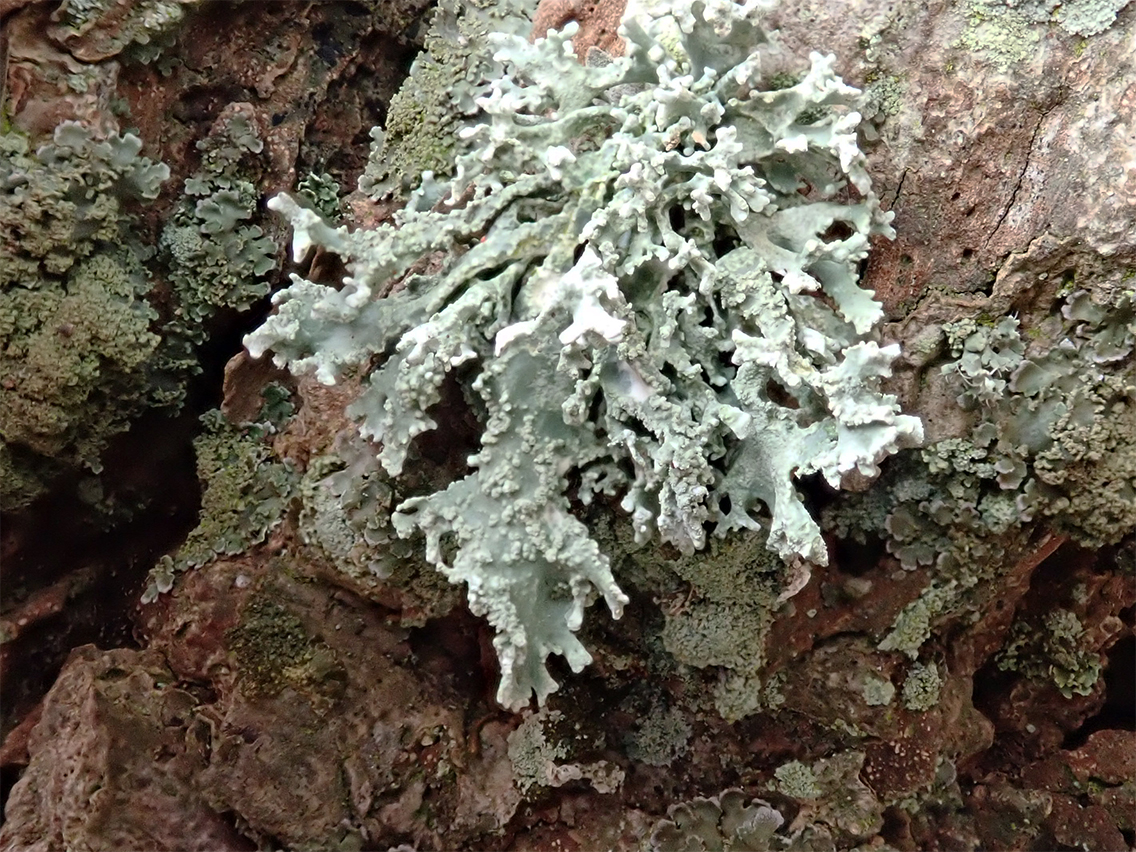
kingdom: Fungi
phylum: Ascomycota
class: Lecanoromycetes
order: Lecanorales
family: Parmeliaceae
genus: Evernia
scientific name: Evernia prunastri
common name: almindelig slåenlav
